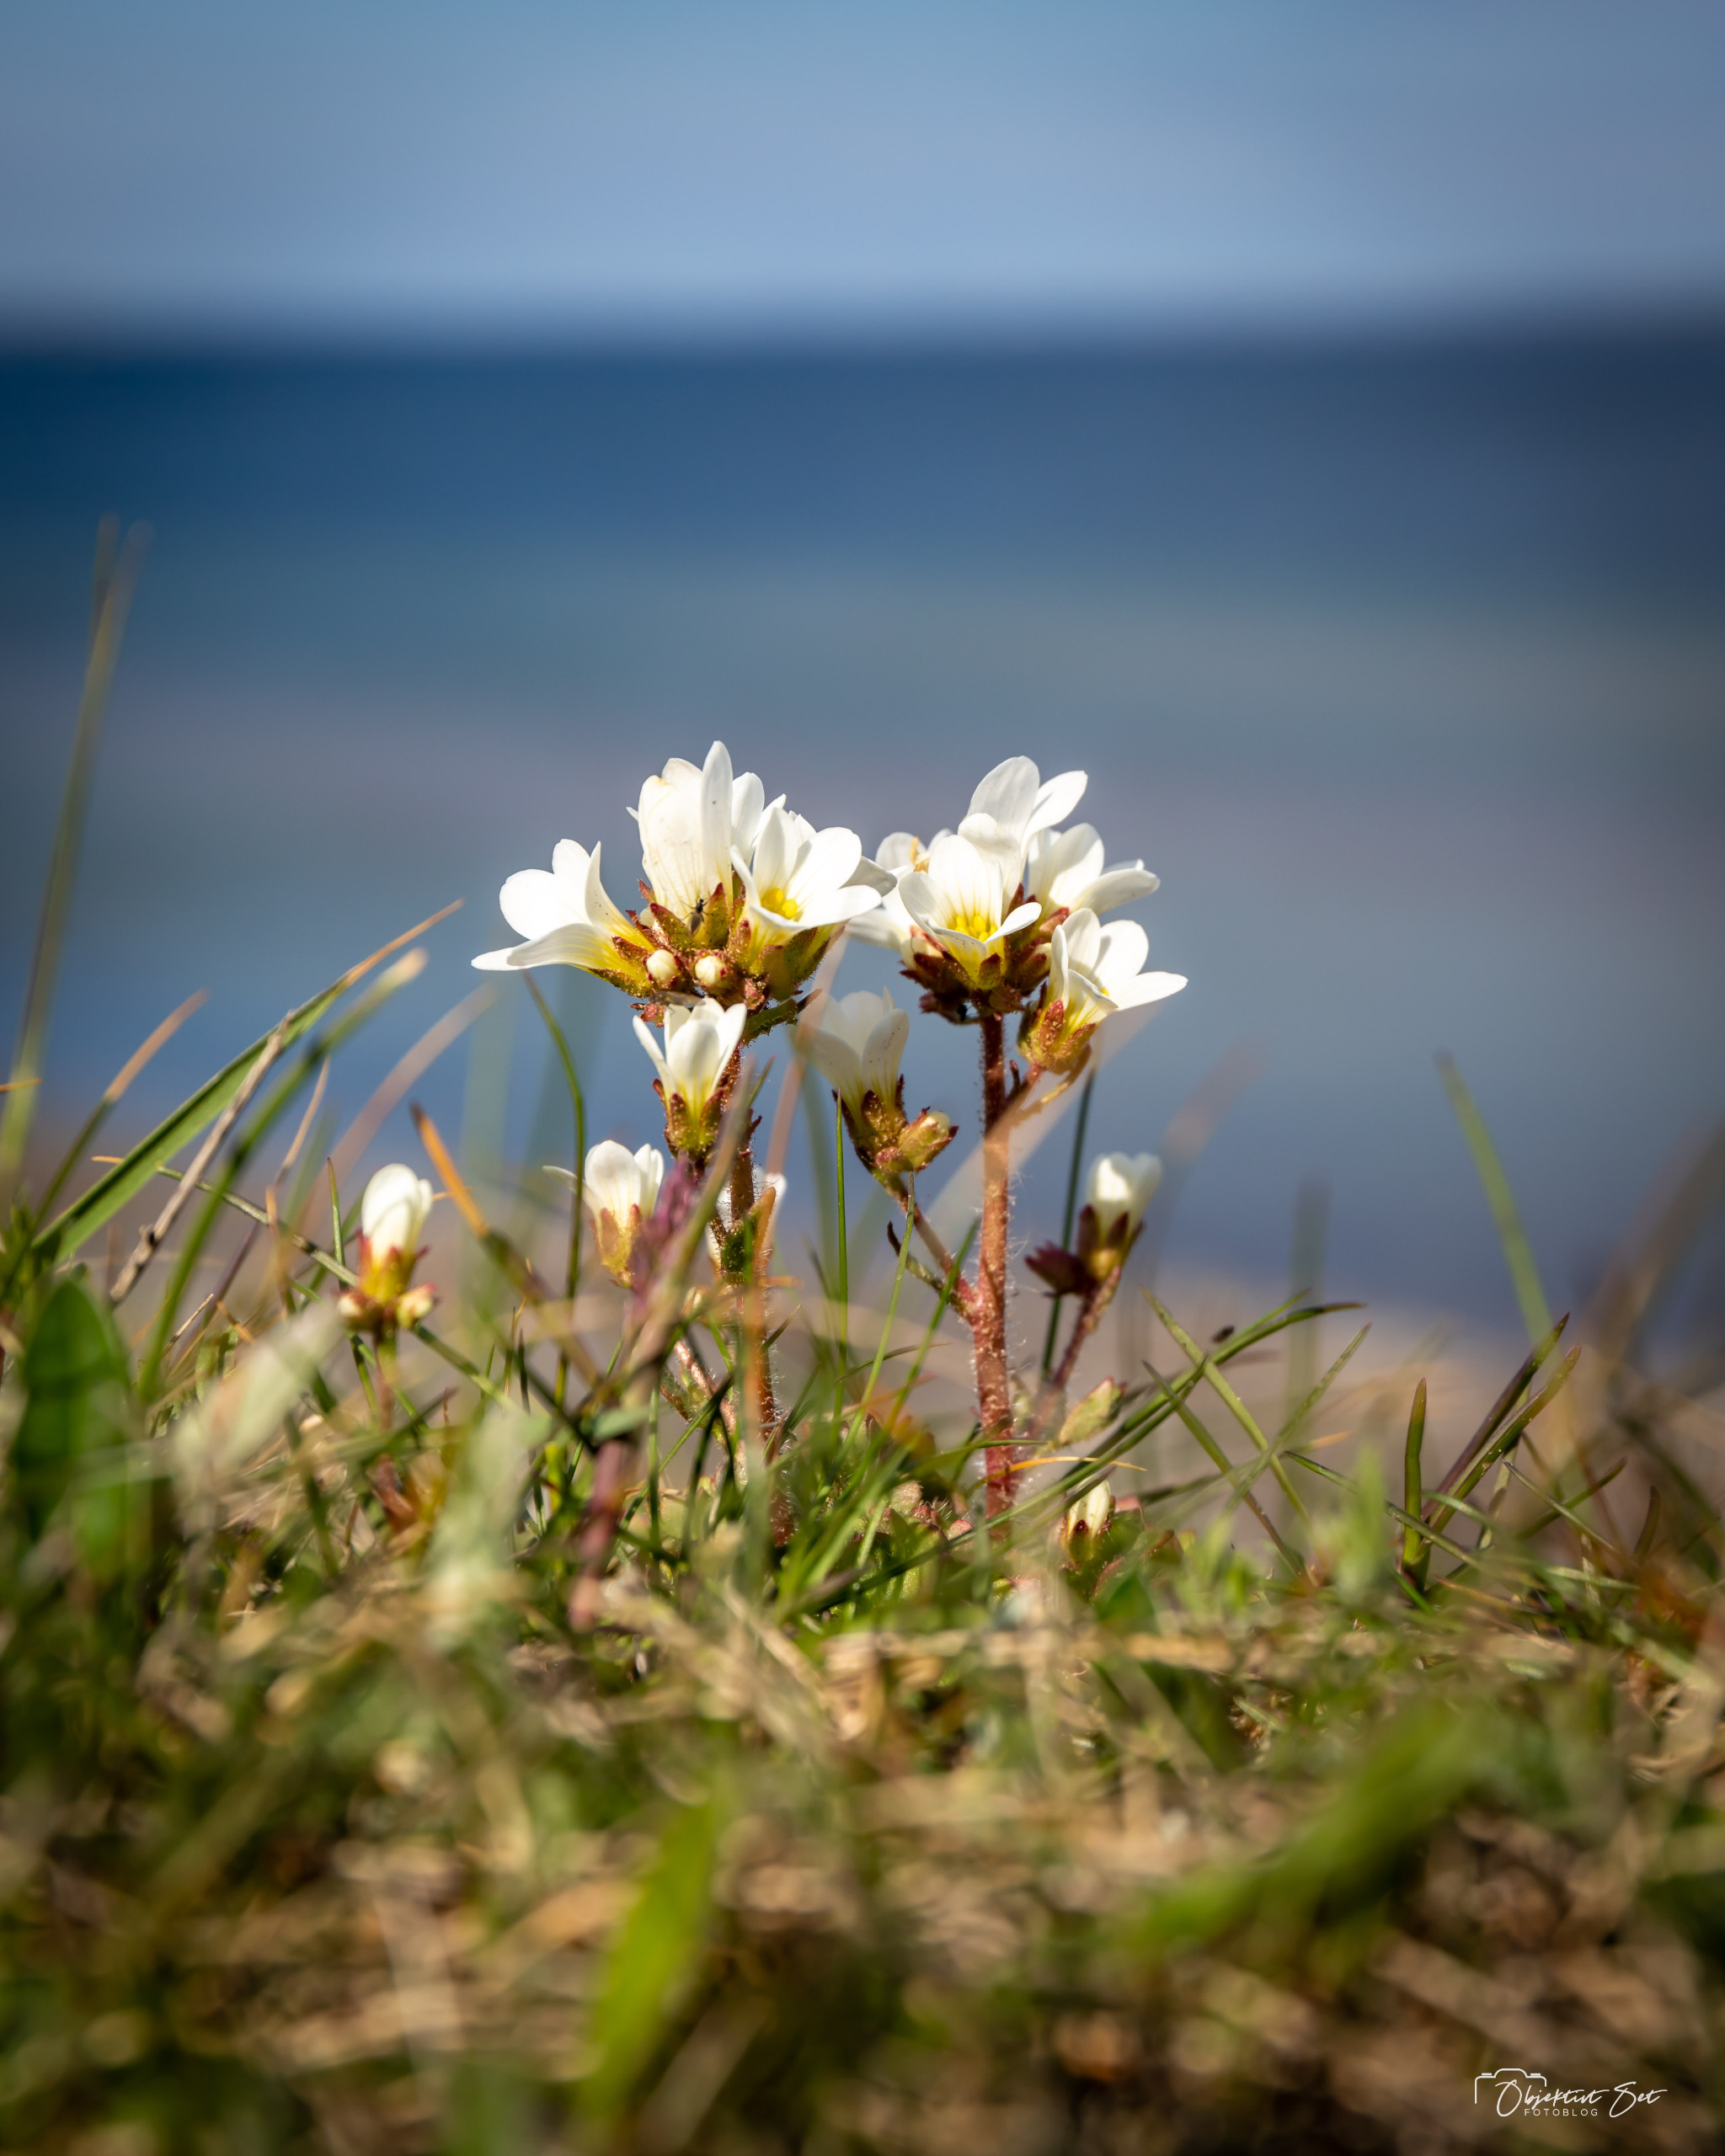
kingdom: Plantae
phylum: Tracheophyta
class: Magnoliopsida
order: Saxifragales
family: Saxifragaceae
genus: Saxifraga
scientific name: Saxifraga granulata
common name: Kornet stenbræk
